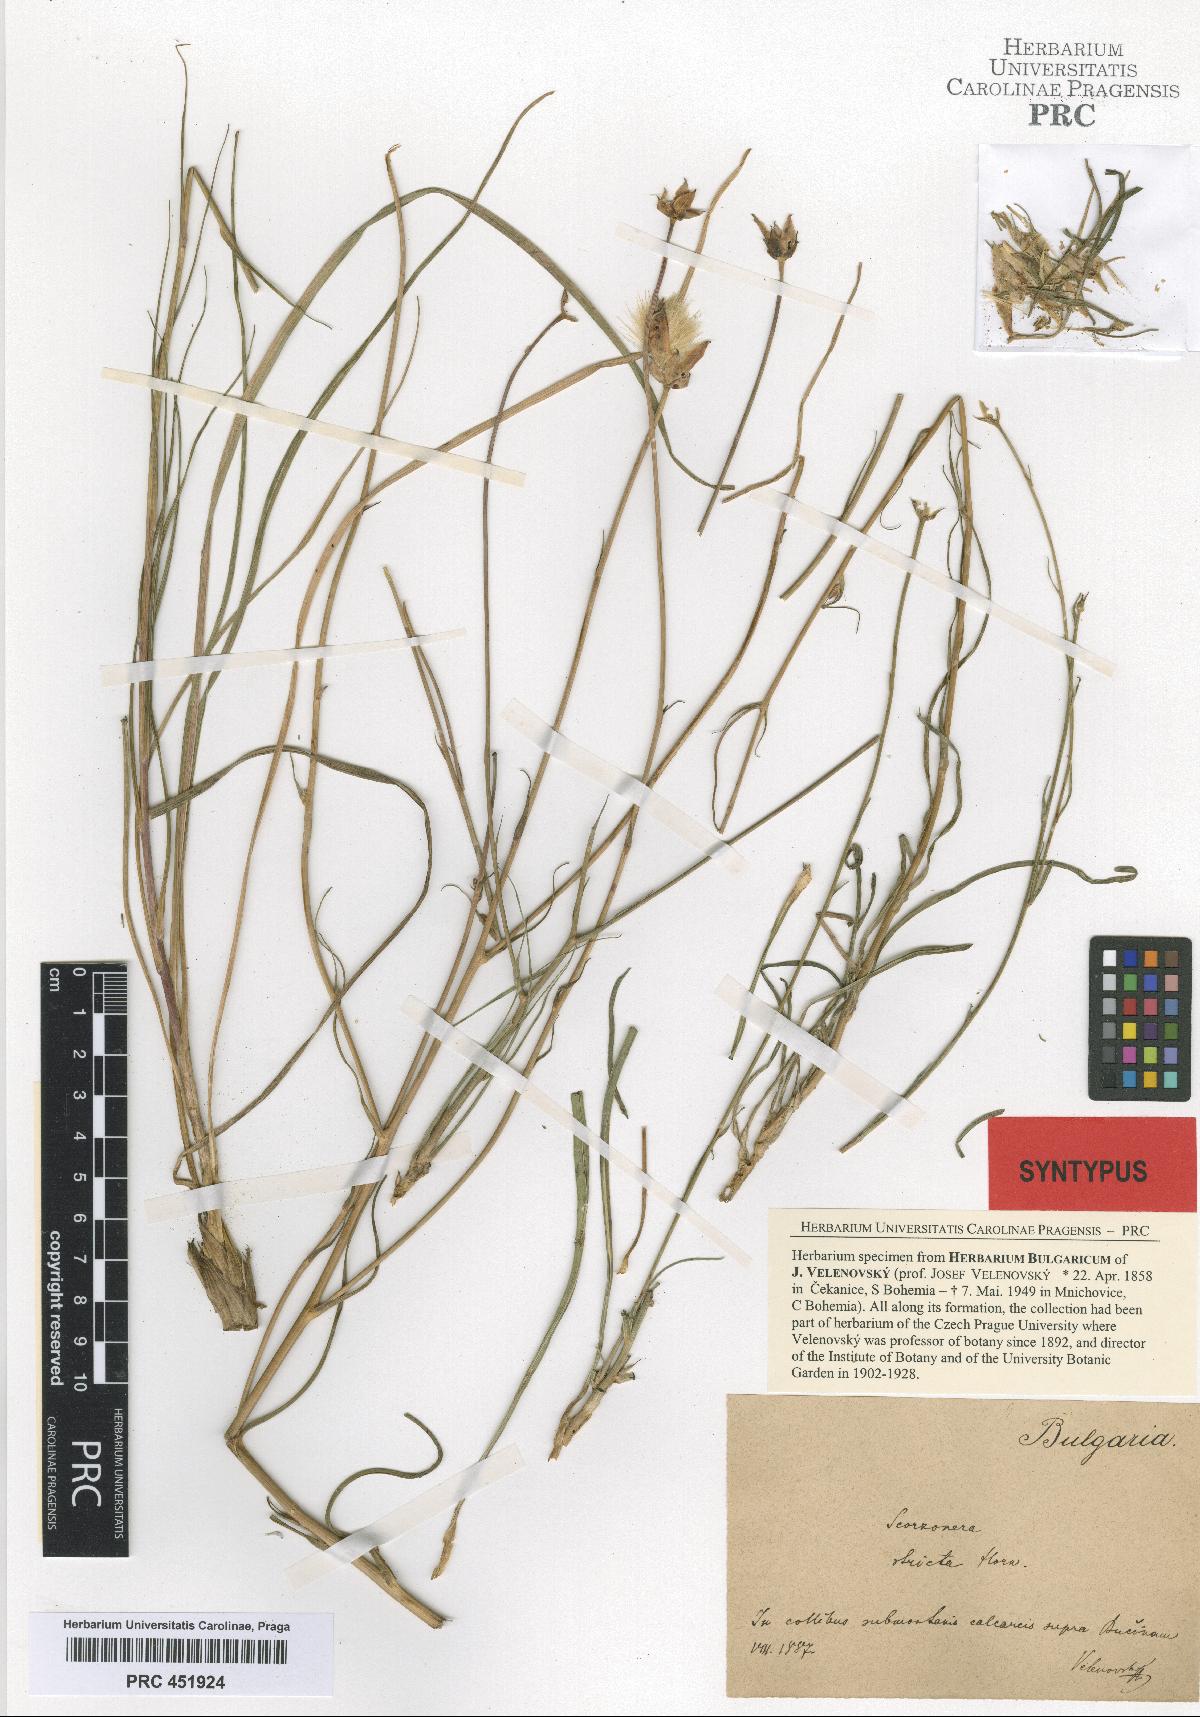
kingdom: Plantae
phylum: Tracheophyta
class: Magnoliopsida
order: Asterales
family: Asteraceae
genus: Pseudopodospermum
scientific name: Pseudopodospermum hispanicum
